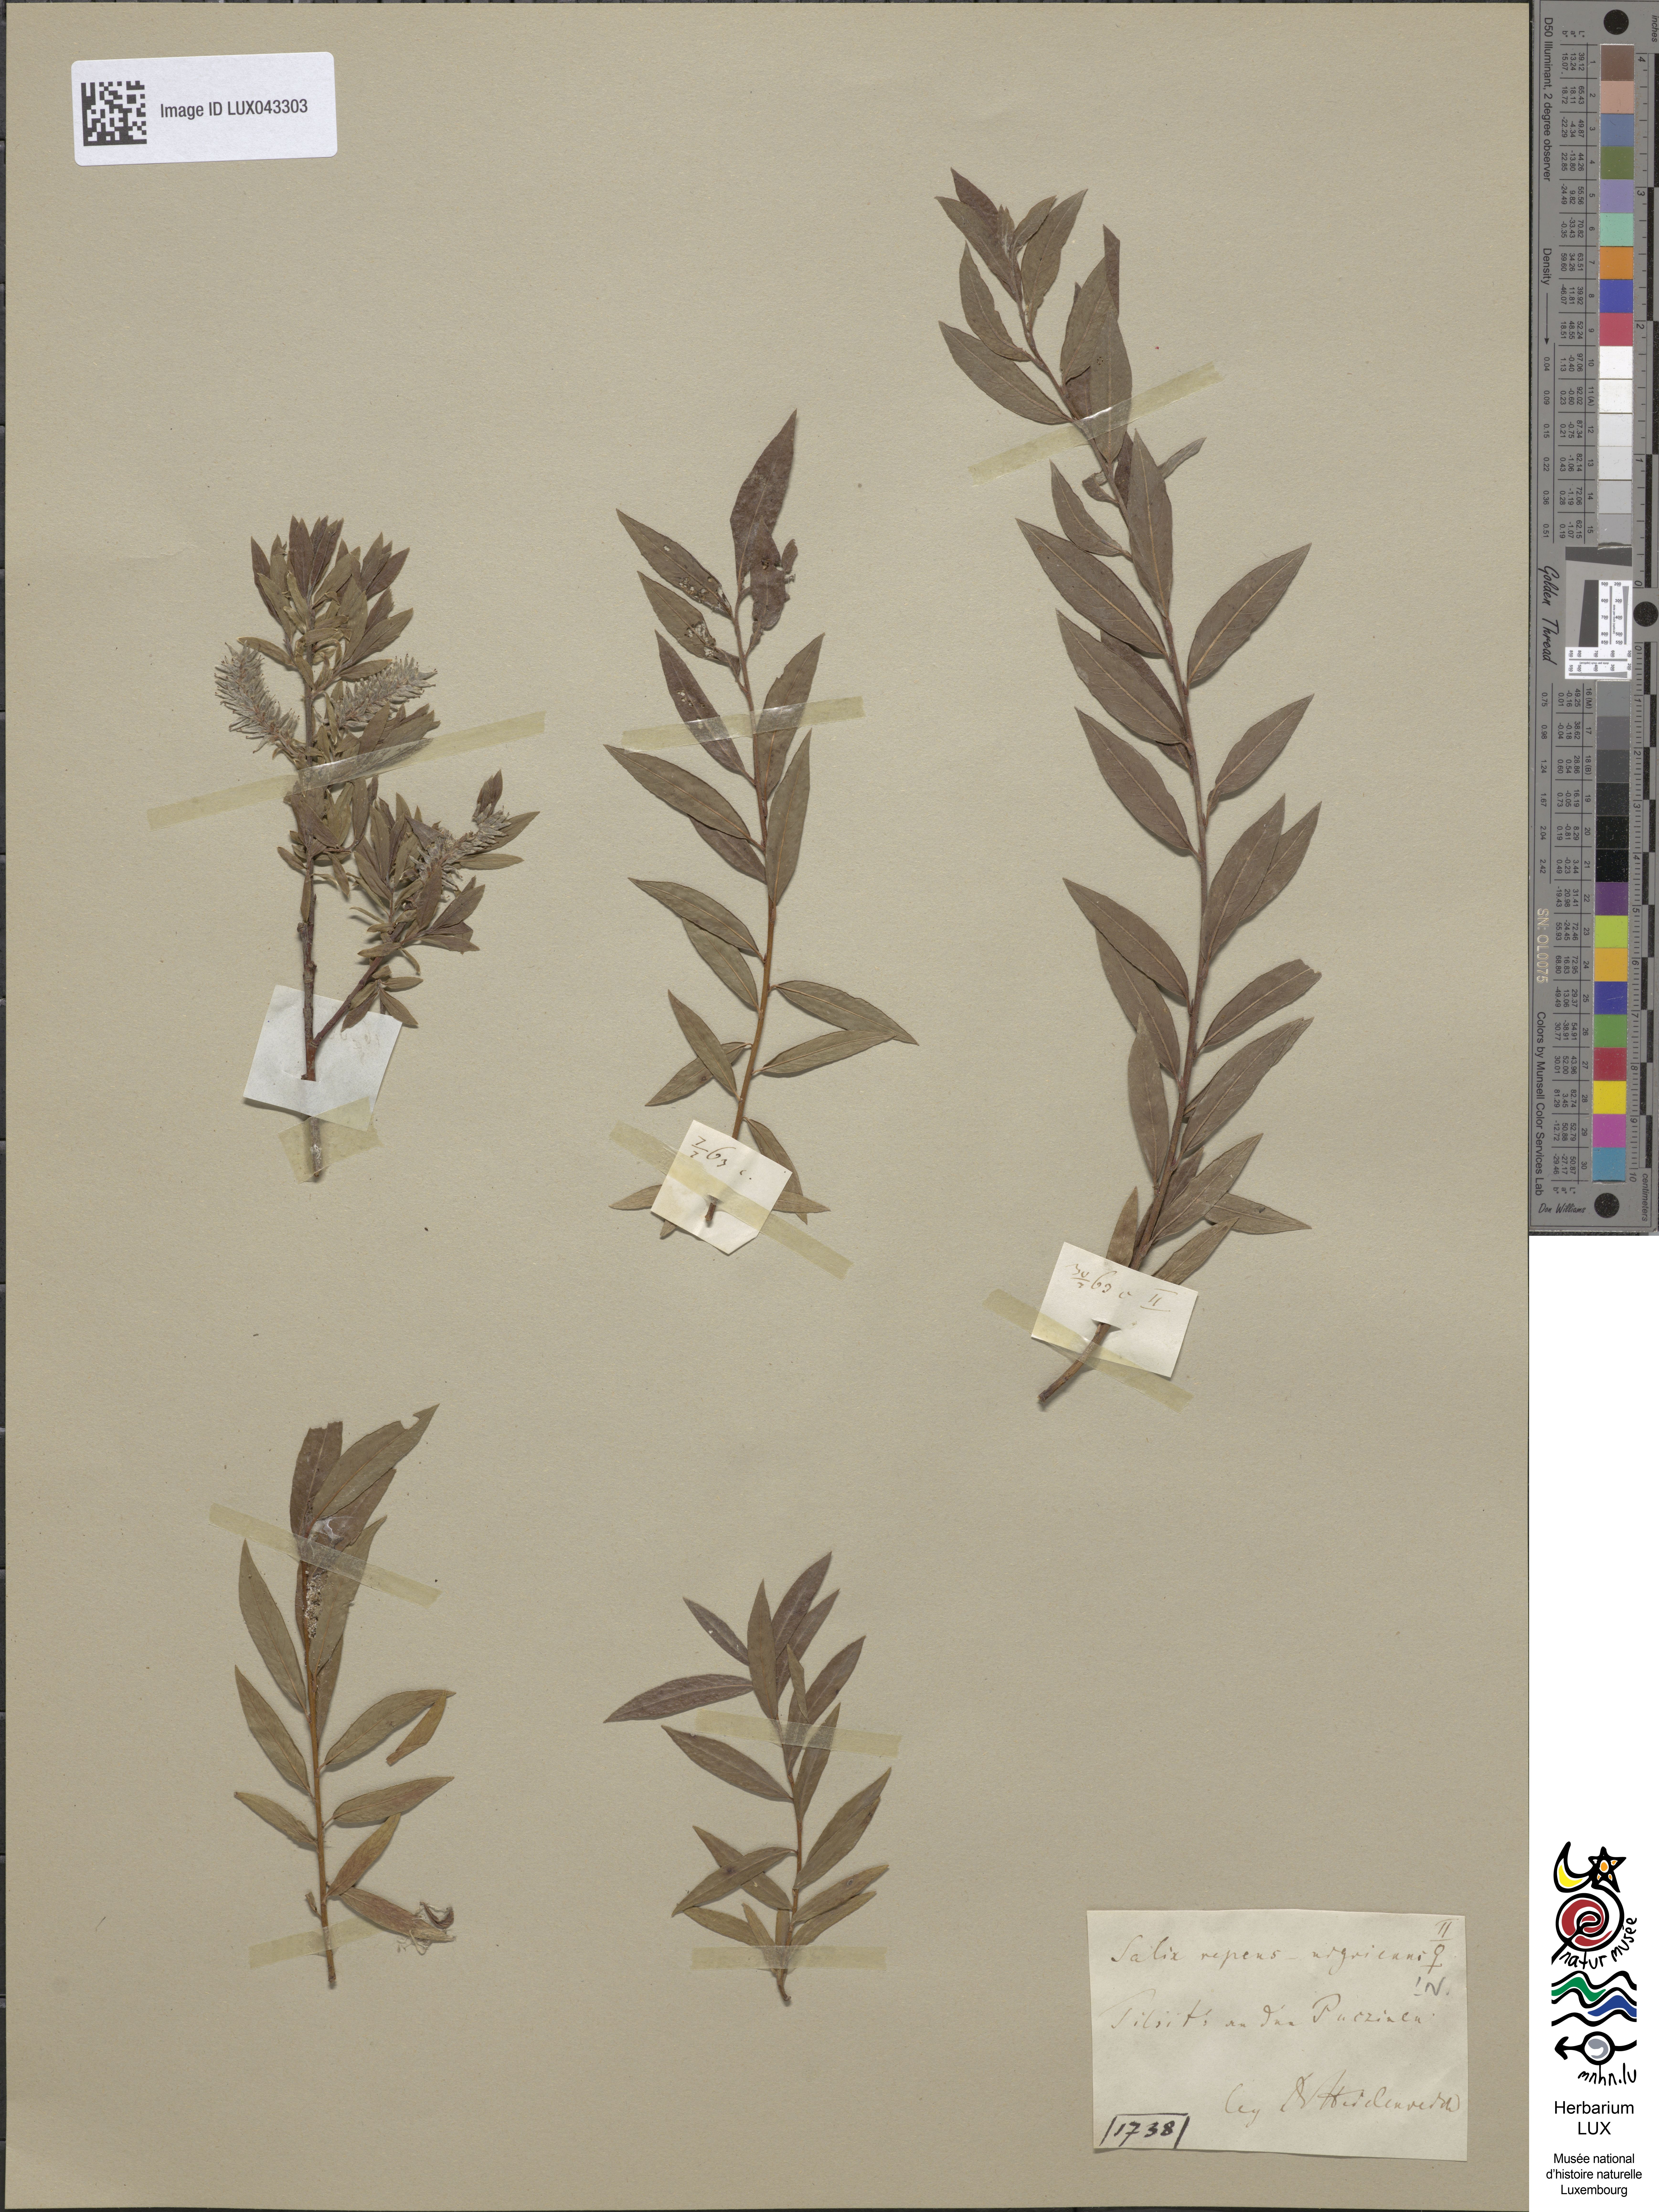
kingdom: Plantae
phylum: Tracheophyta
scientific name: Tracheophyta
